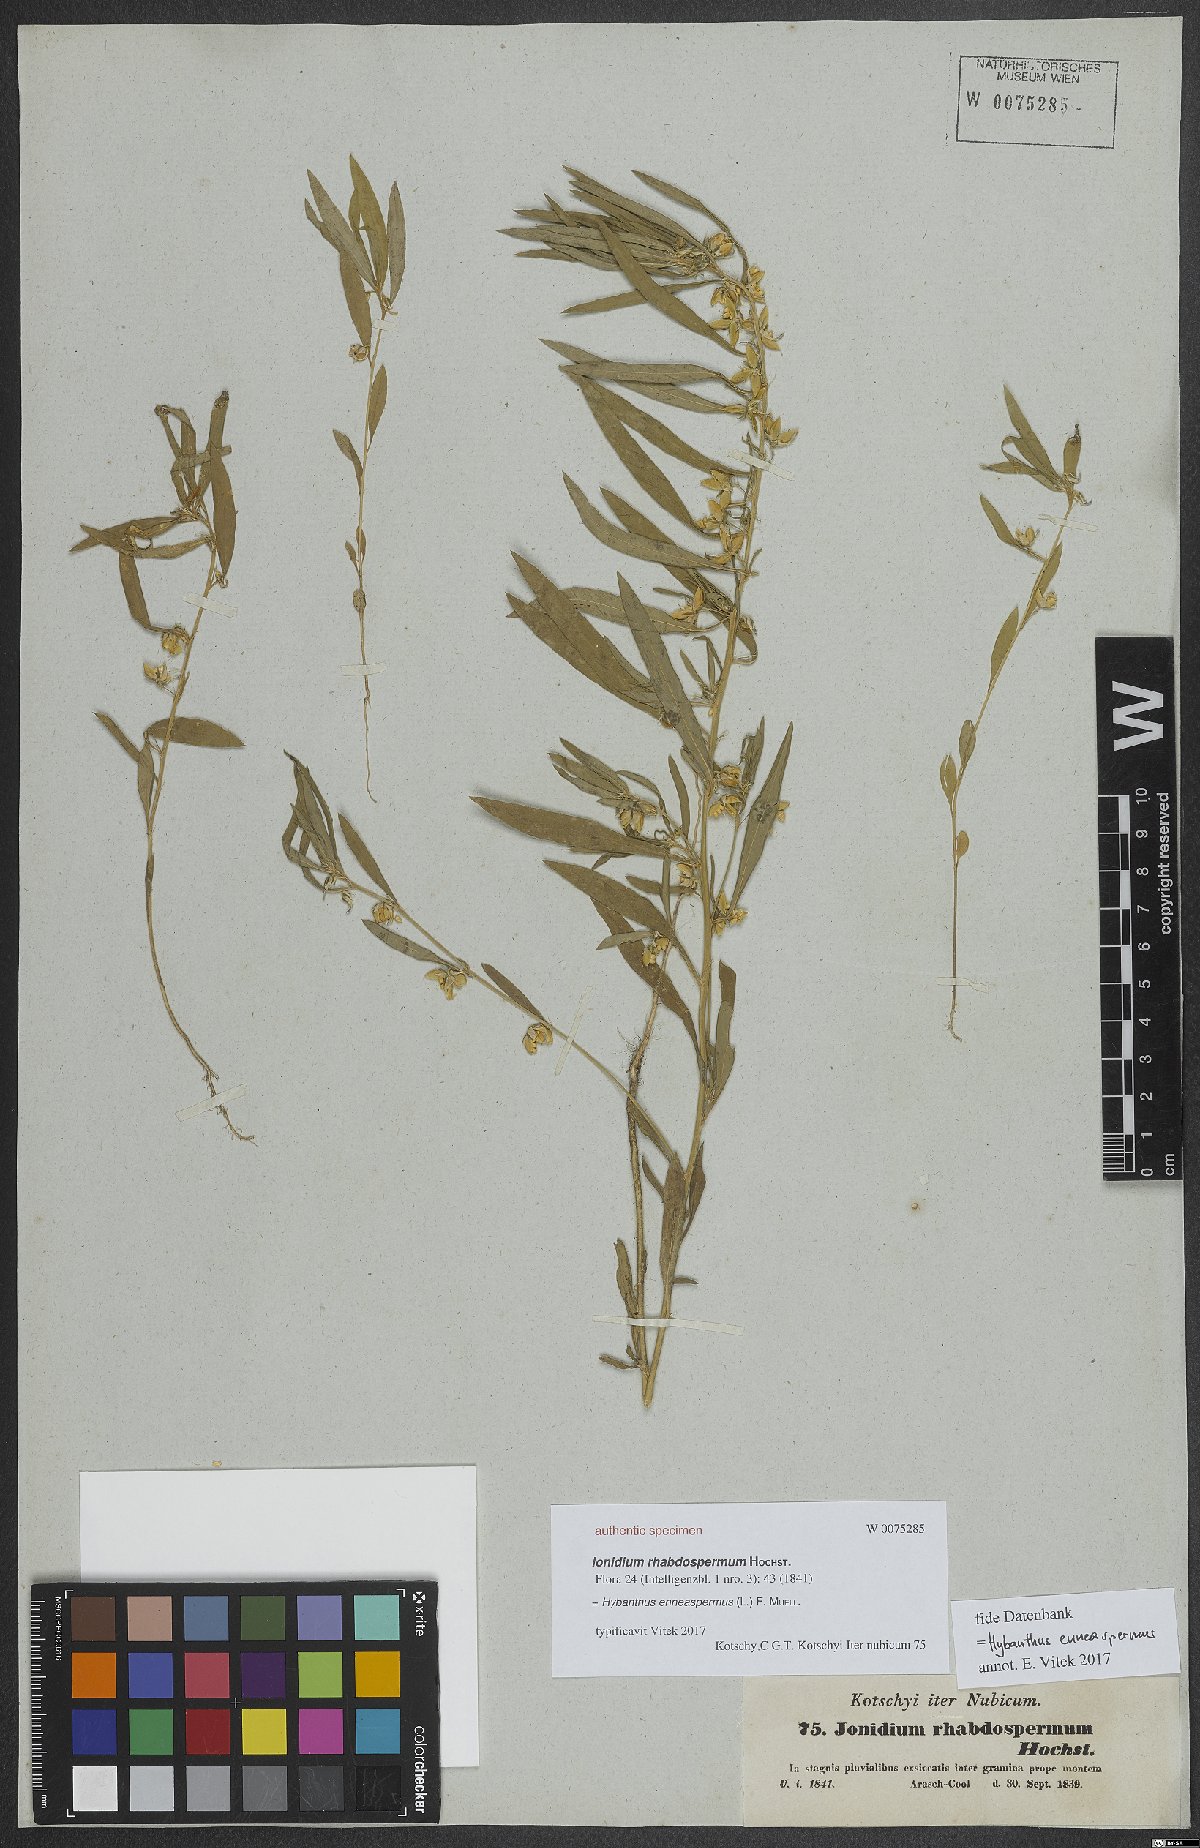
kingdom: Plantae
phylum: Tracheophyta
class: Magnoliopsida
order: Malpighiales
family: Violaceae
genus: Pigea
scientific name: Pigea enneasperma
